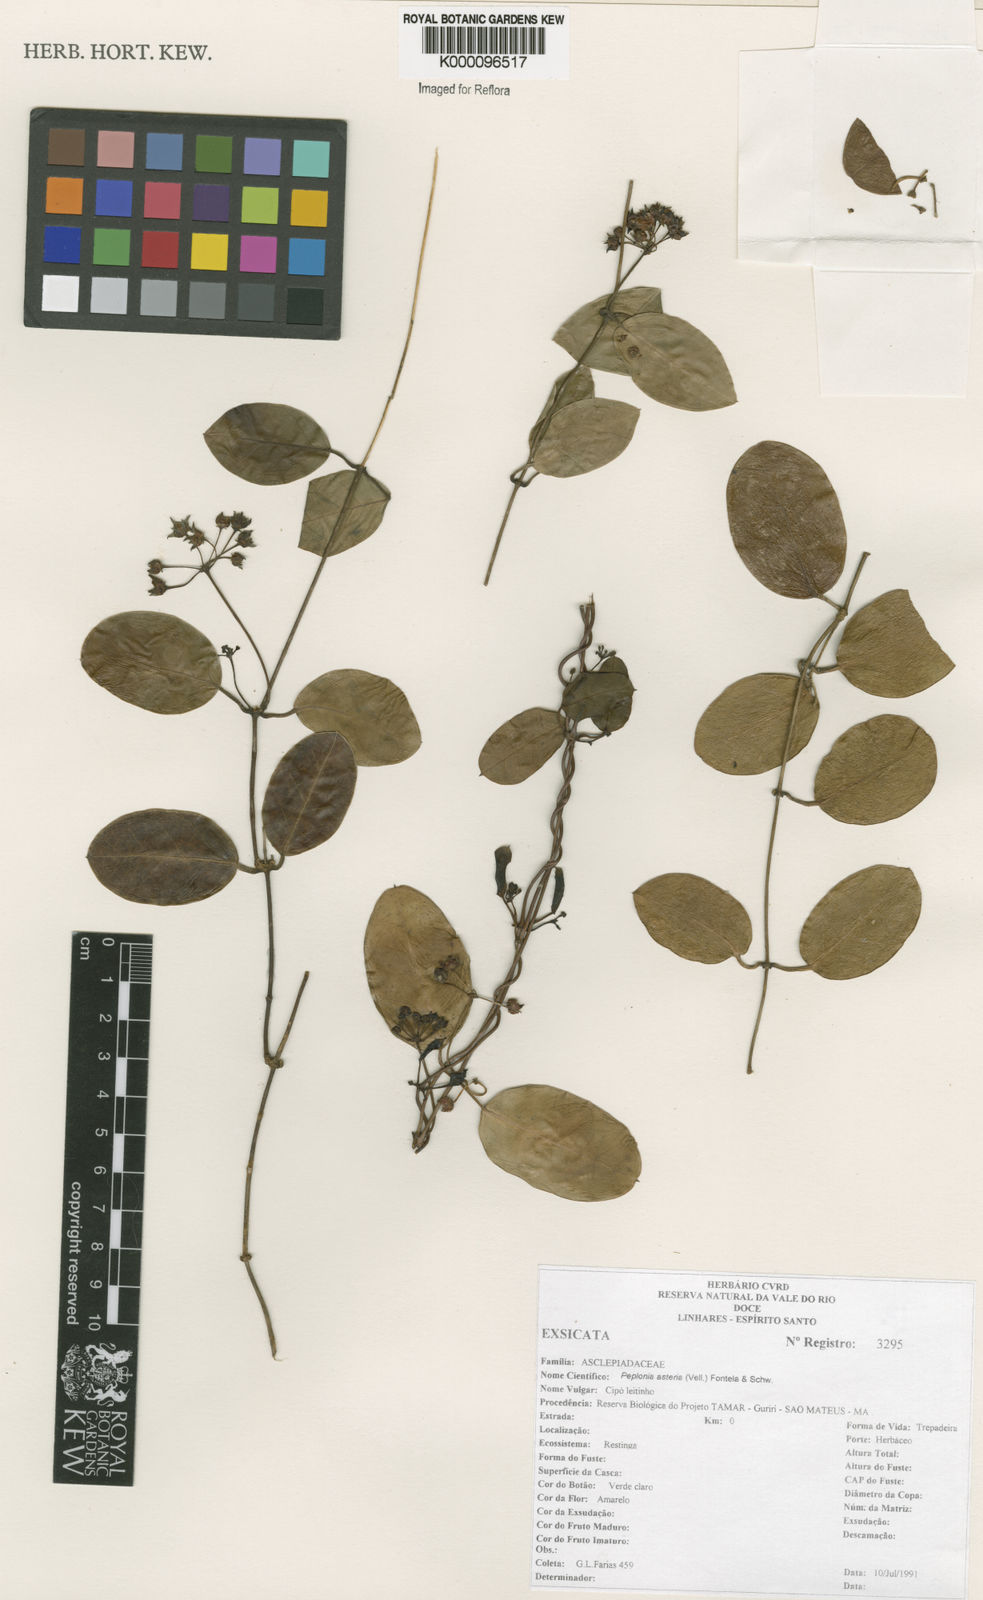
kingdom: Plantae
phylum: Tracheophyta
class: Magnoliopsida
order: Gentianales
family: Apocynaceae
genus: Peplonia
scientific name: Peplonia asteria
